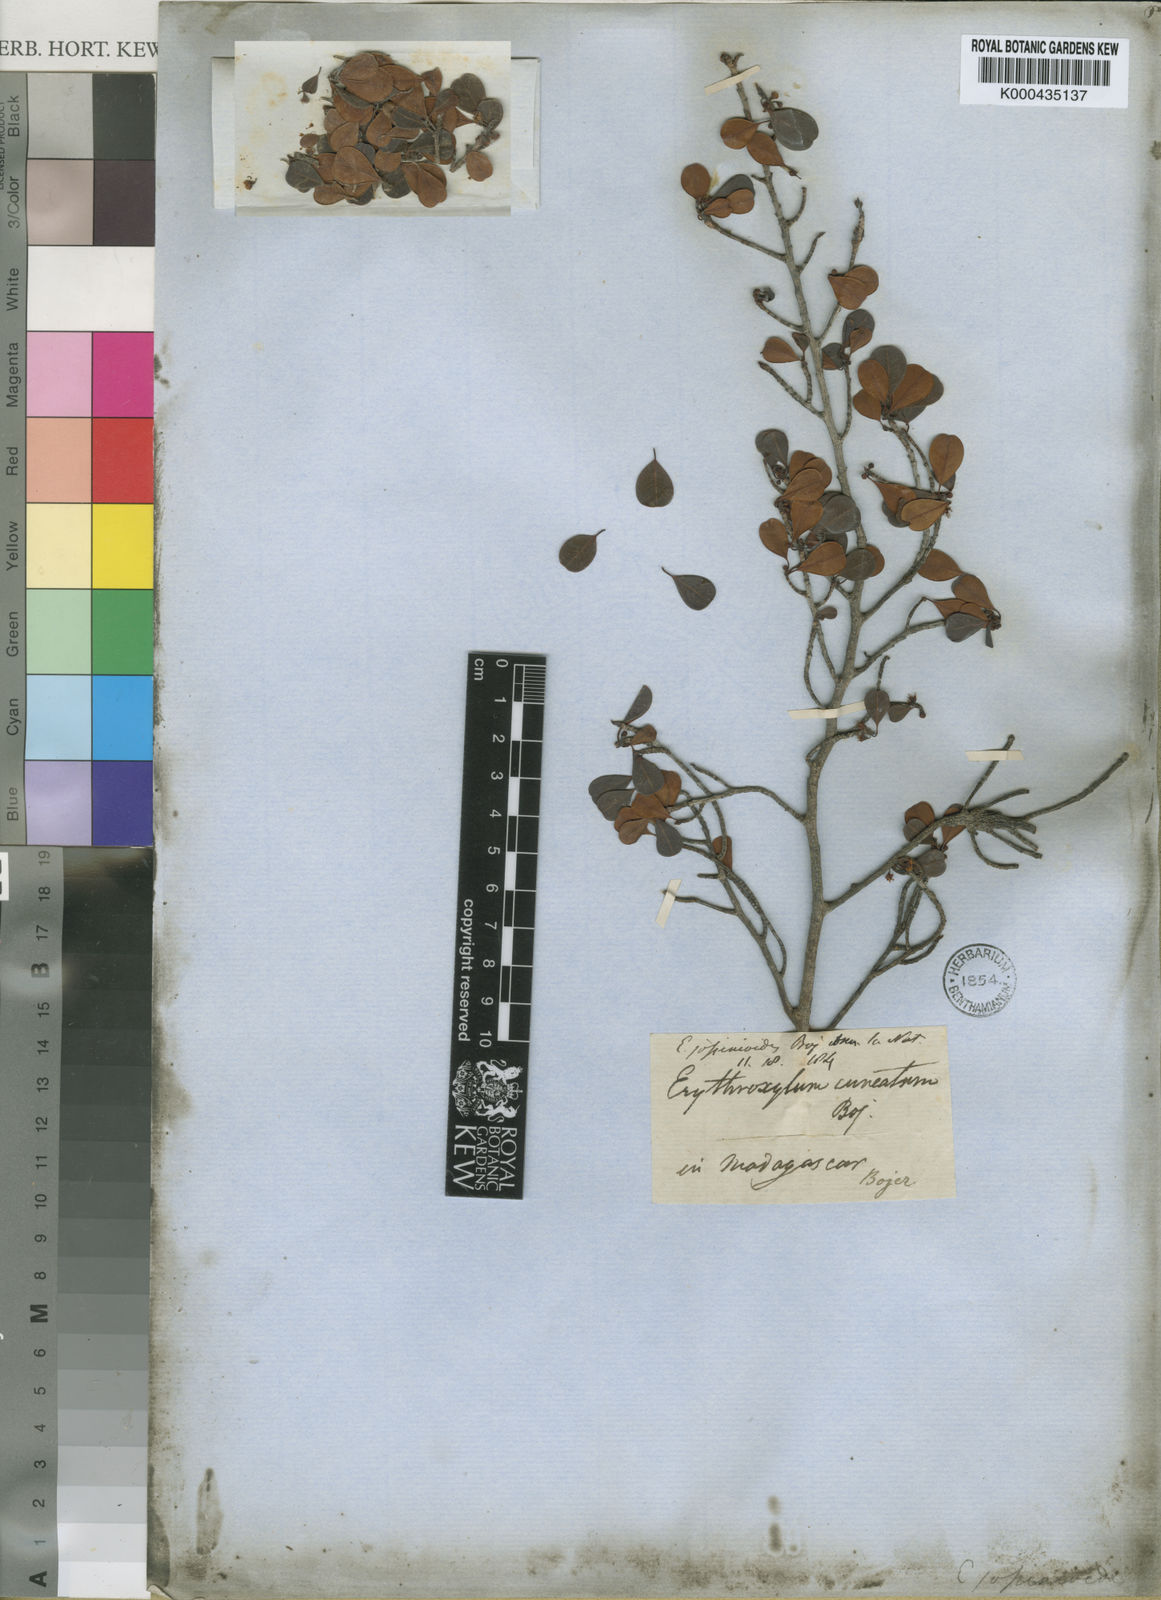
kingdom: Plantae
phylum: Tracheophyta
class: Magnoliopsida
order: Malpighiales
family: Erythroxylaceae
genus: Erythroxylum
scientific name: Erythroxylum discolor
